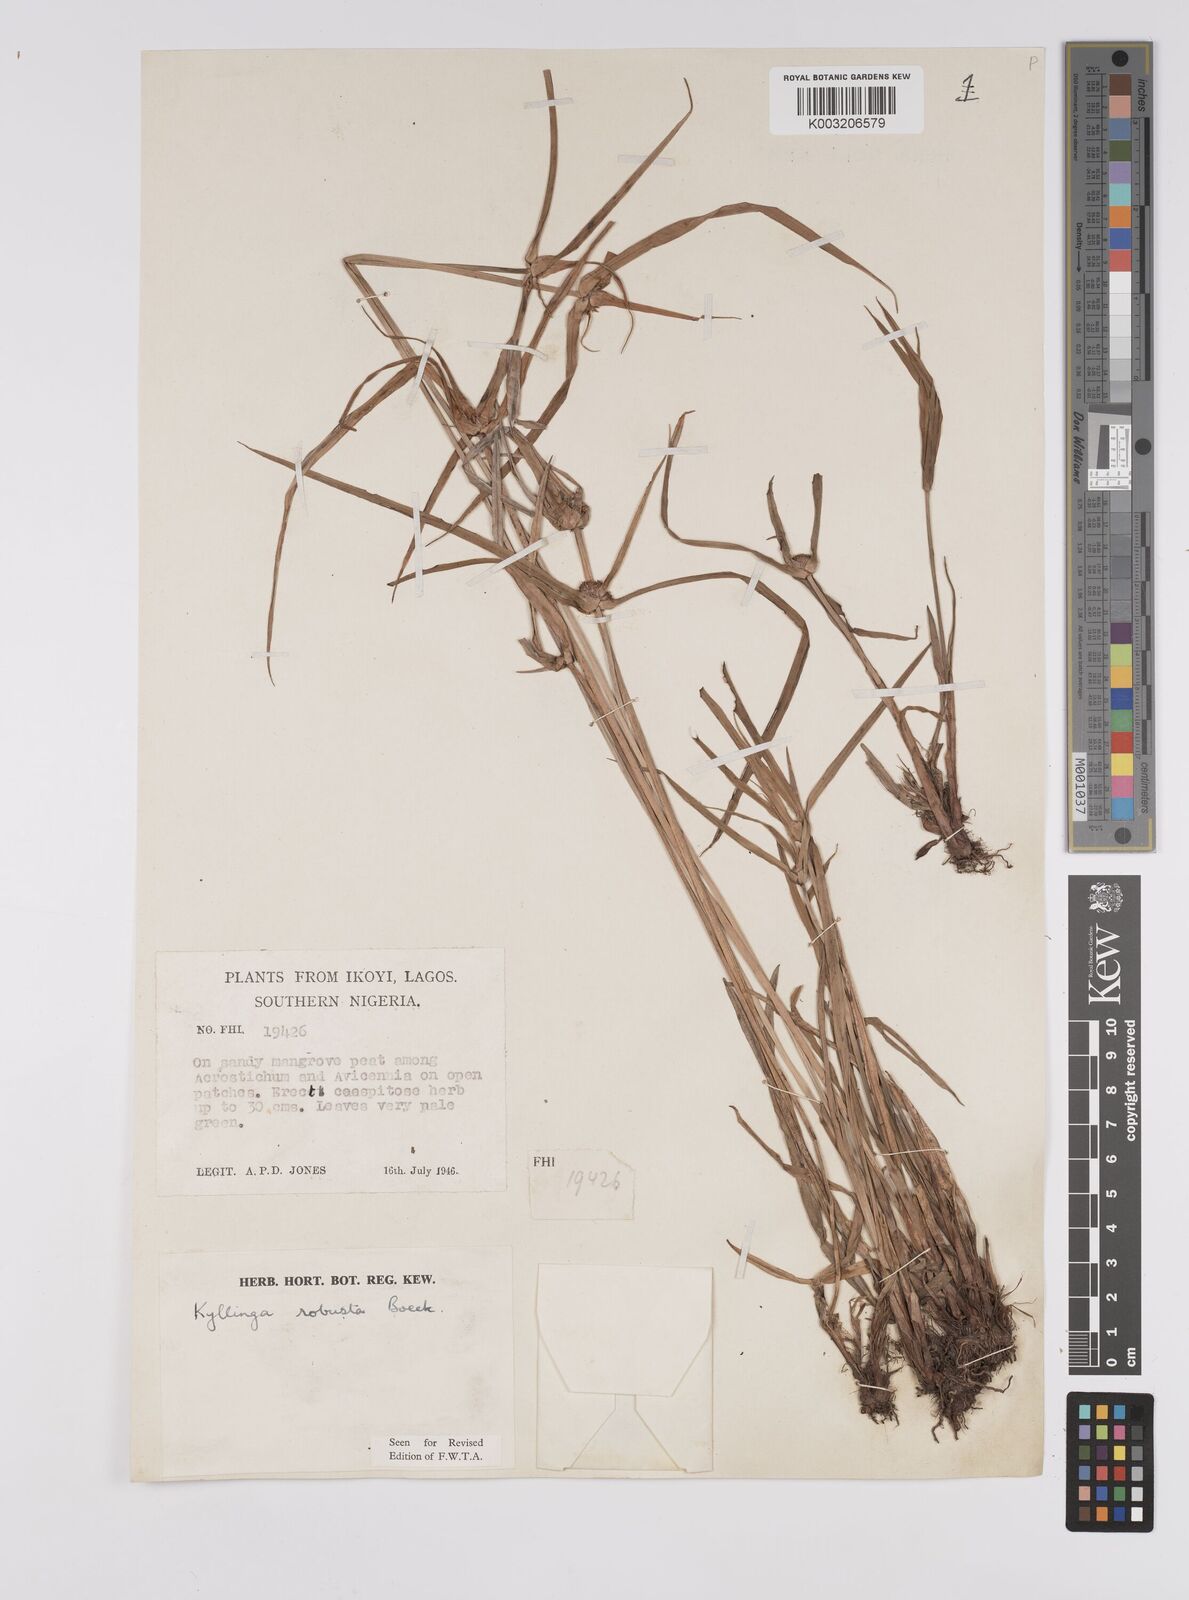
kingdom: Plantae
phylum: Tracheophyta
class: Liliopsida
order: Poales
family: Cyperaceae
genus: Cyperus
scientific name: Cyperus
